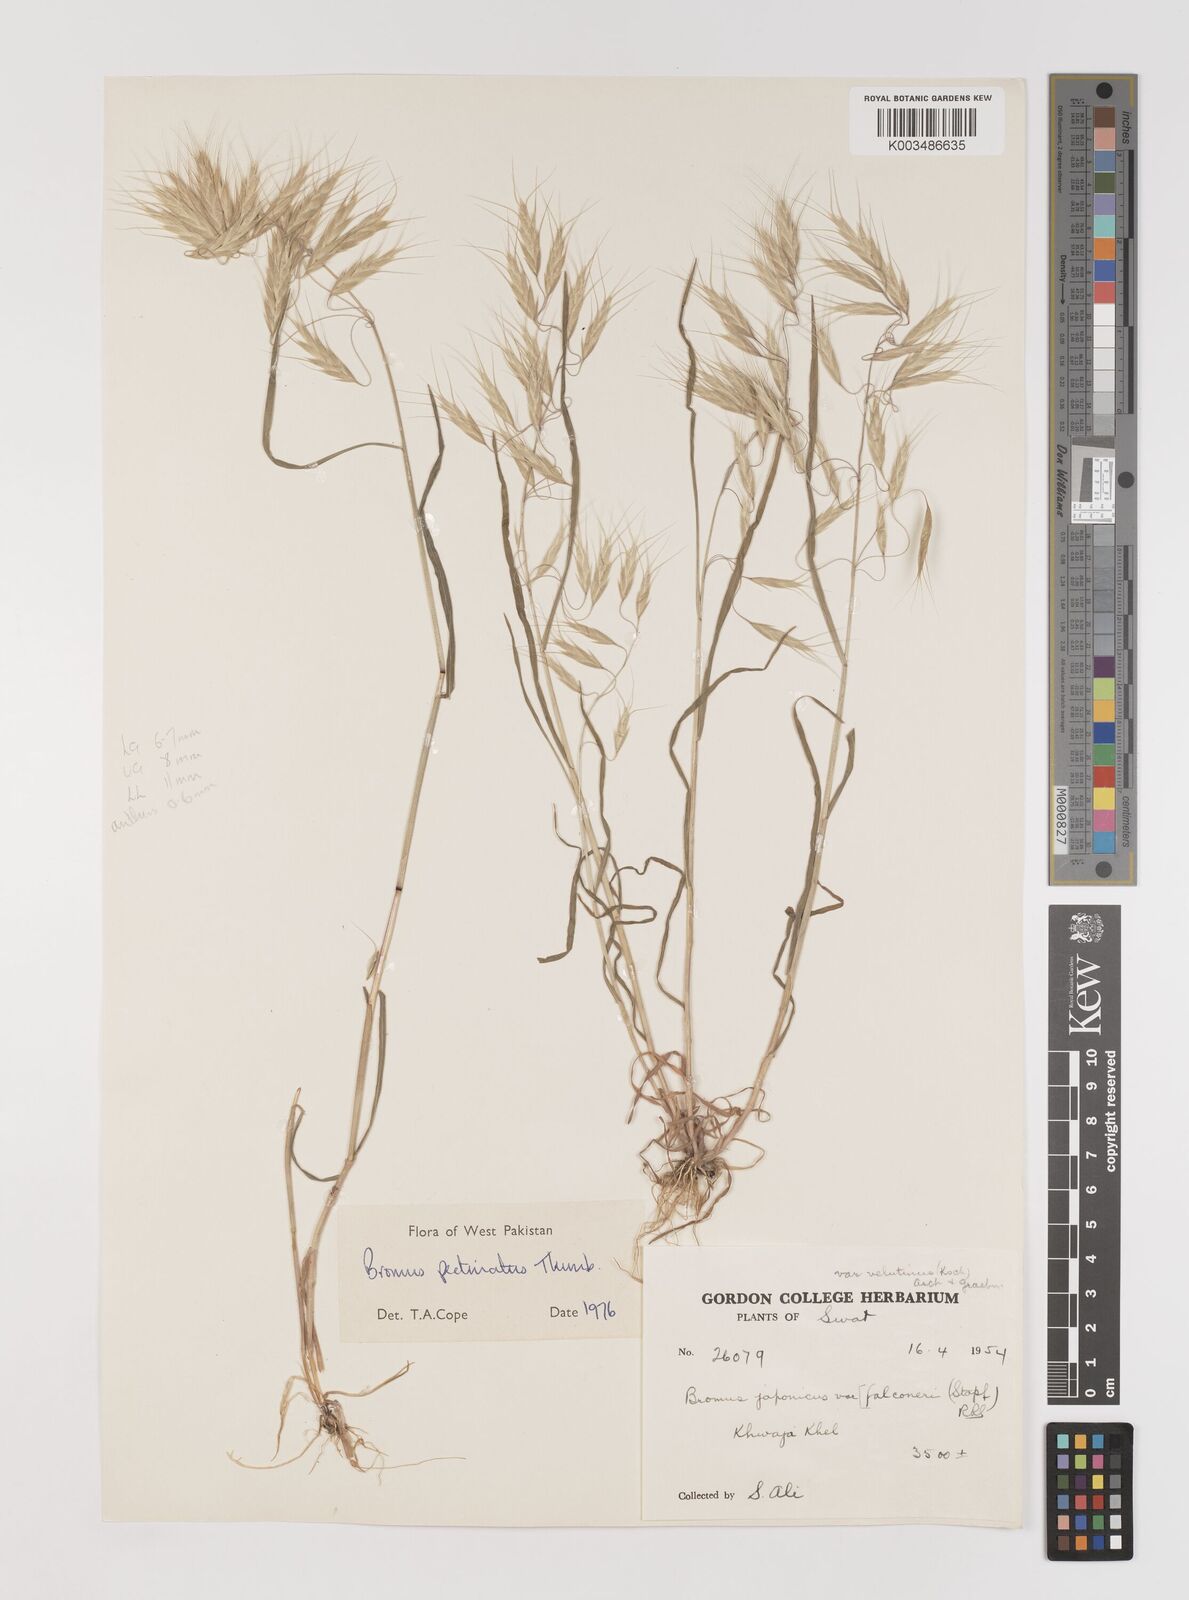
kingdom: Plantae
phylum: Tracheophyta
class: Liliopsida
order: Poales
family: Poaceae
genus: Bromus
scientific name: Bromus pectinatus
